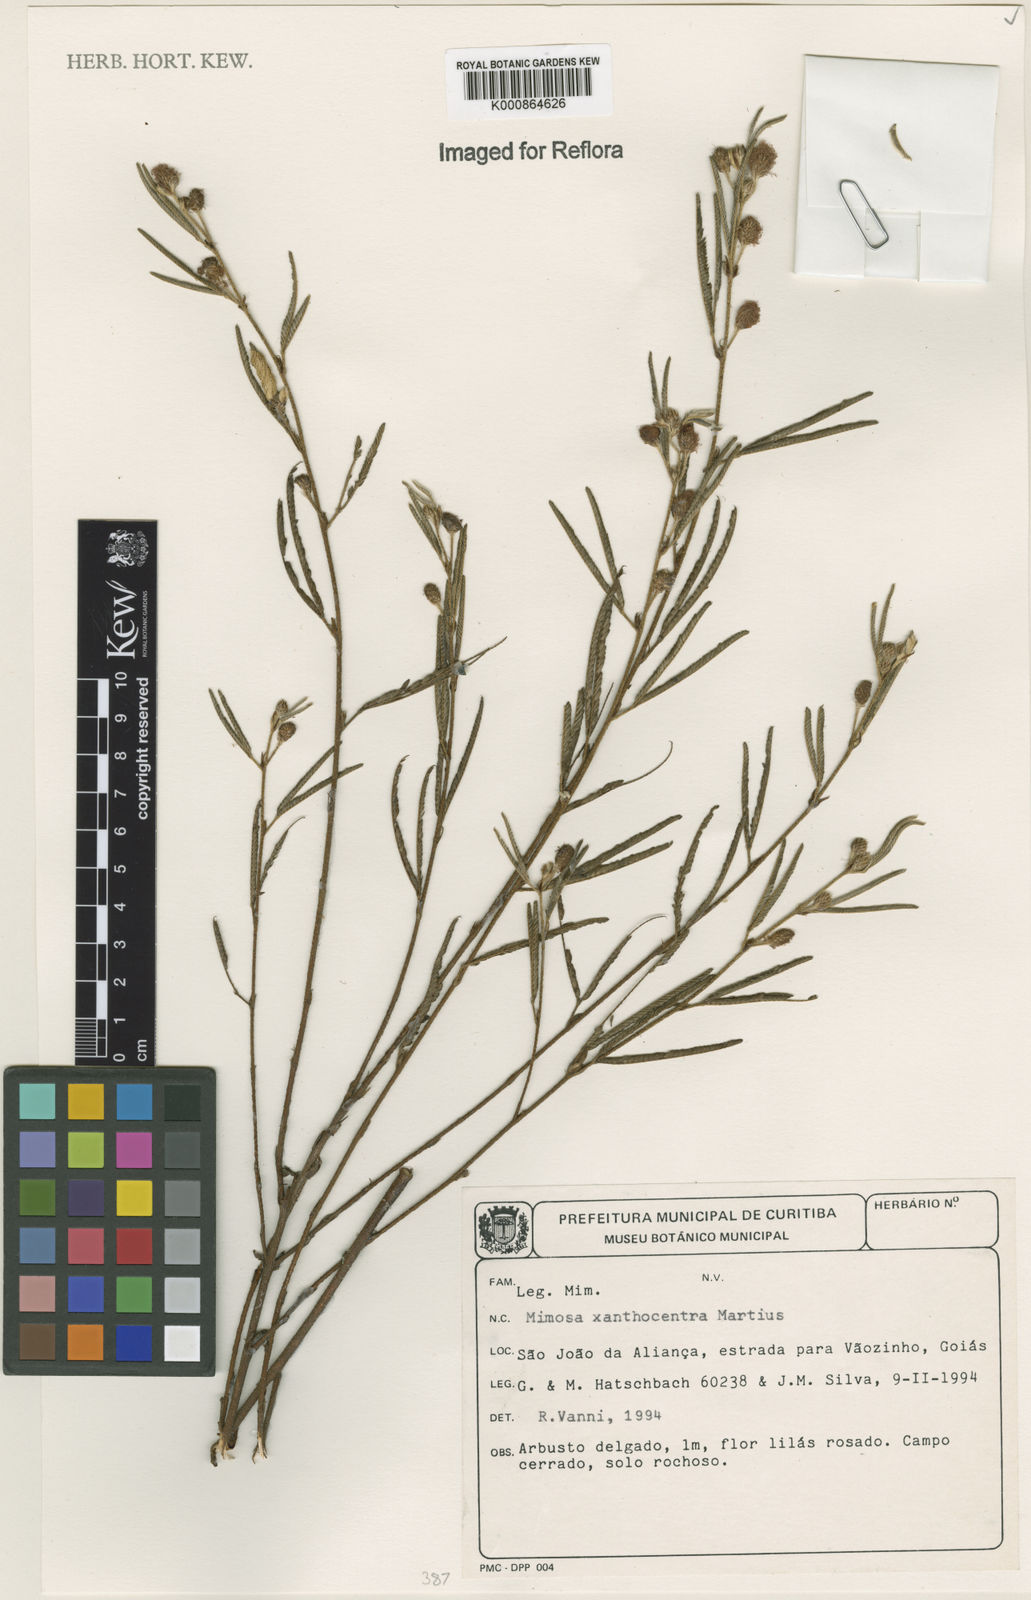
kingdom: Plantae
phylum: Tracheophyta
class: Magnoliopsida
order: Fabales
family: Fabaceae
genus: Mimosa
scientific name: Mimosa
